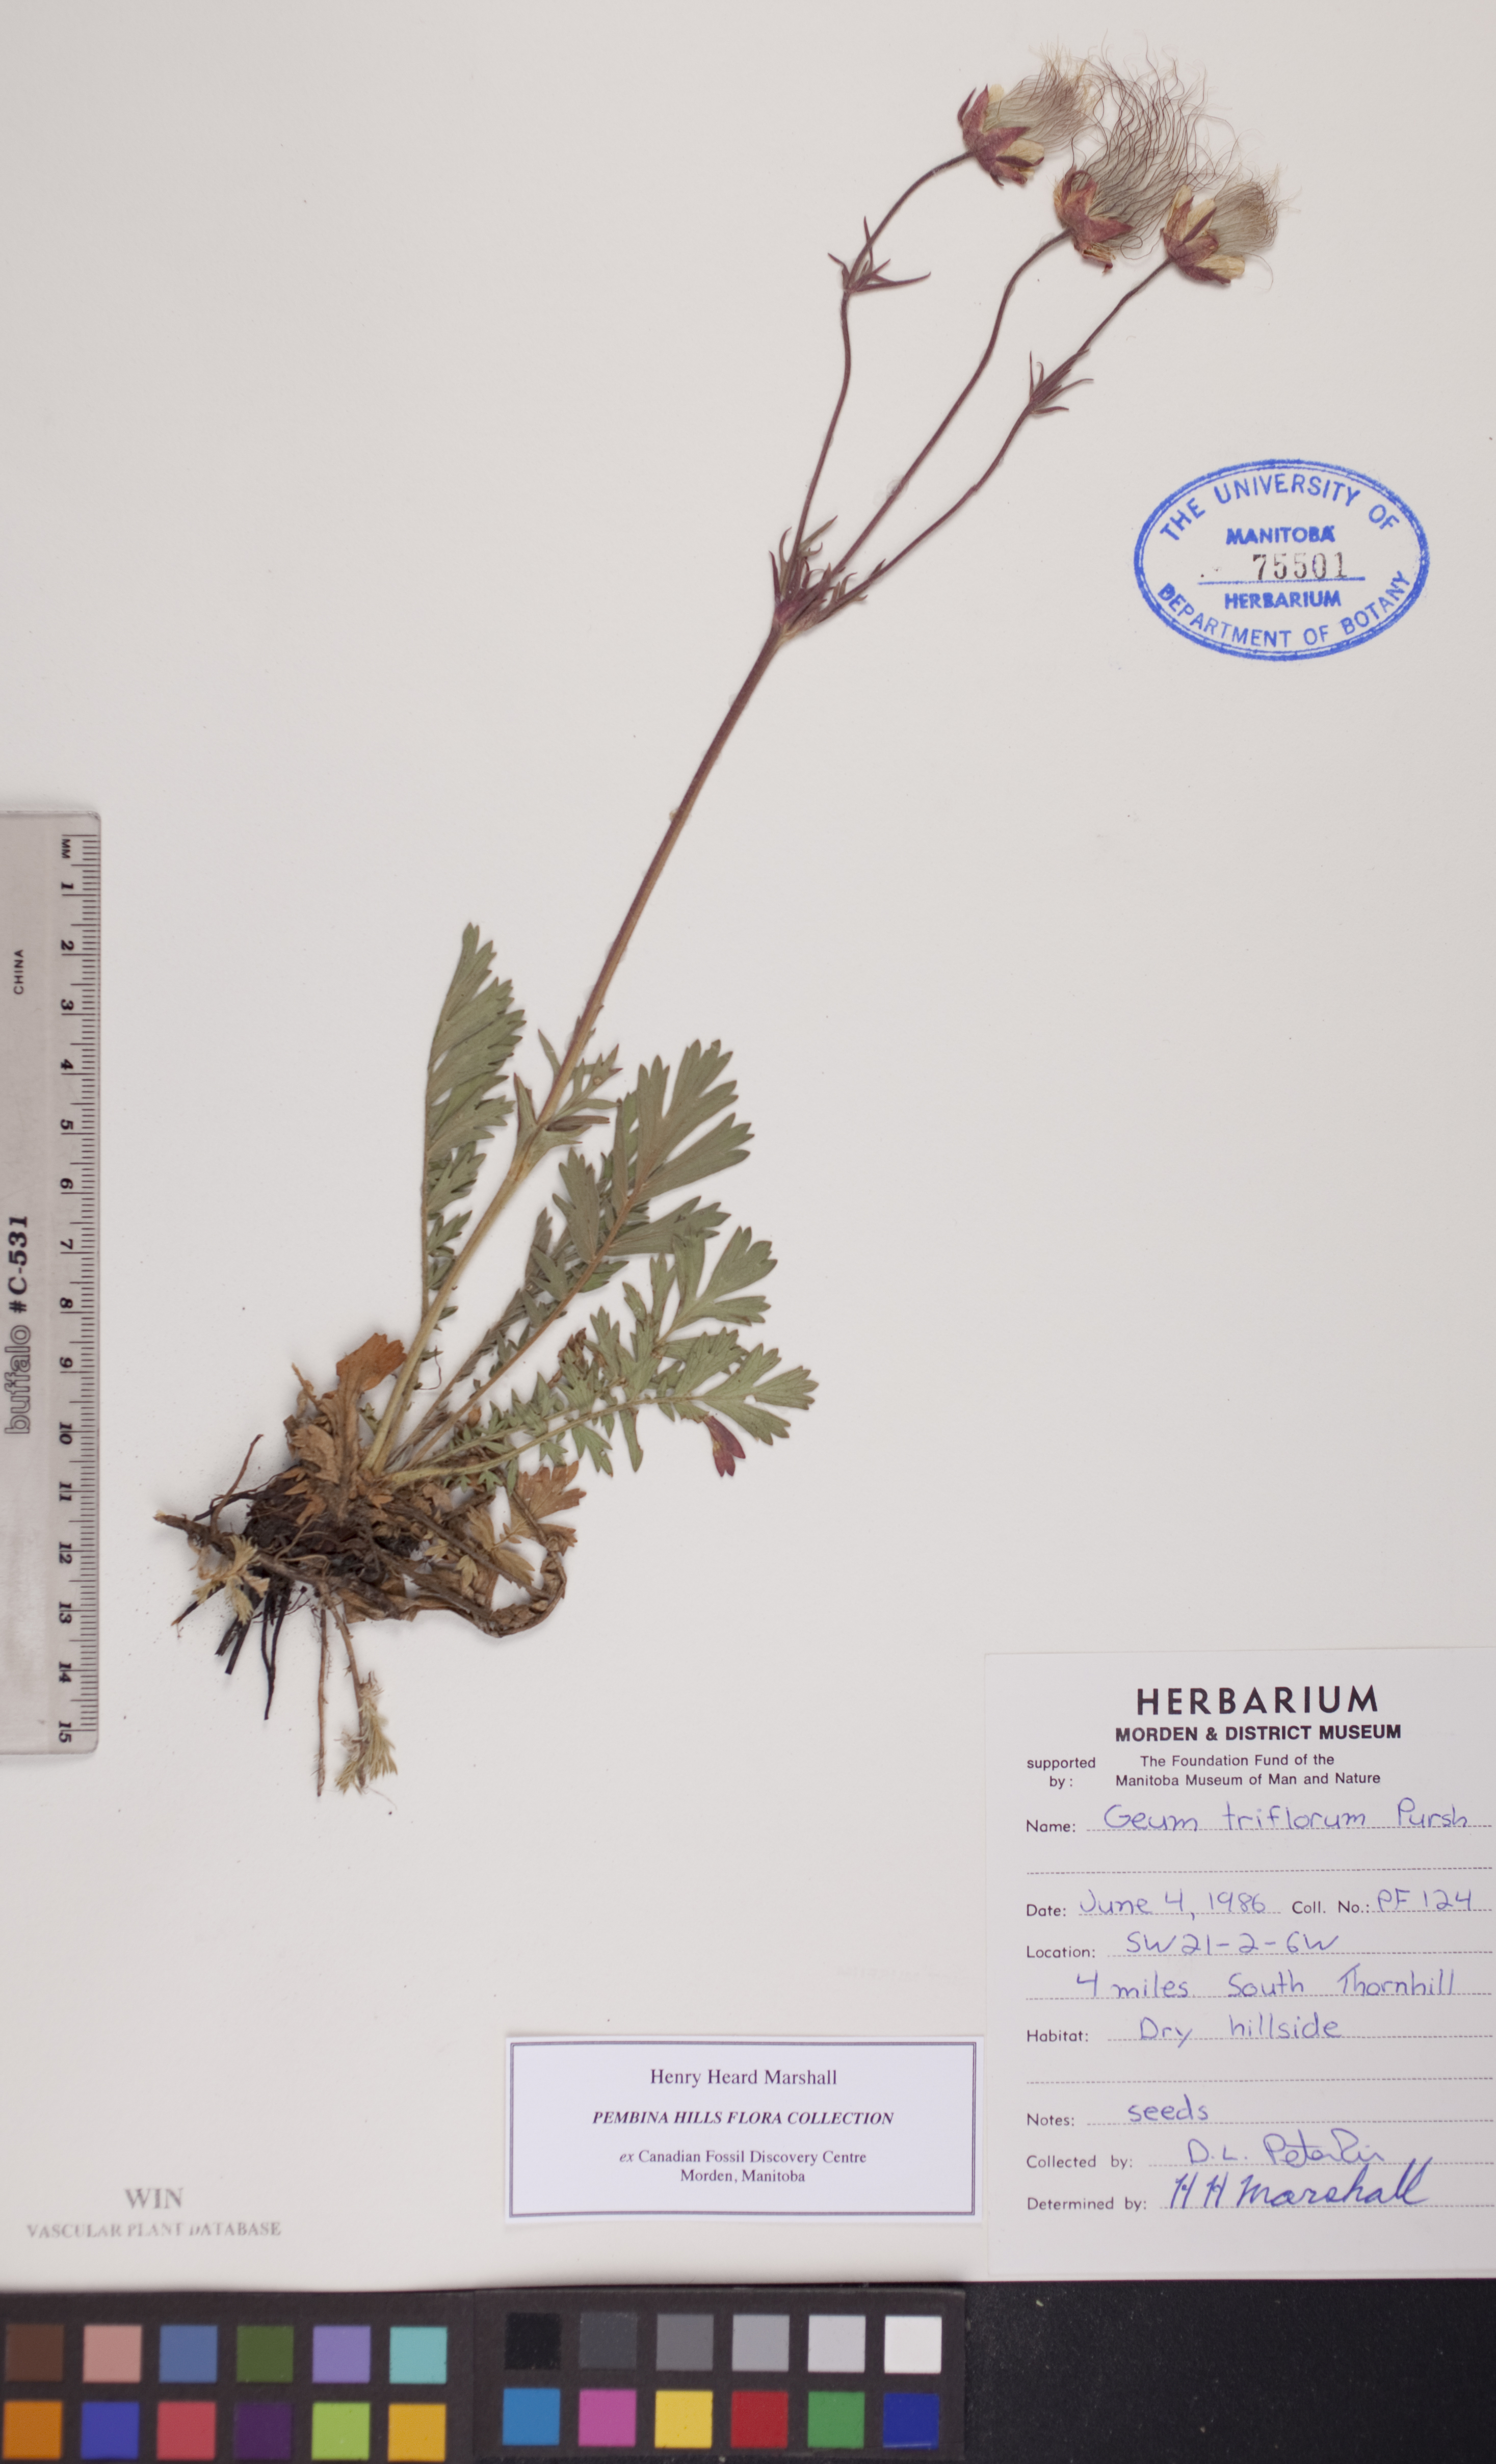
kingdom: Plantae
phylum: Tracheophyta
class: Magnoliopsida
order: Rosales
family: Rosaceae
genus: Geum
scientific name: Geum triflorum
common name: Old man's whiskers
